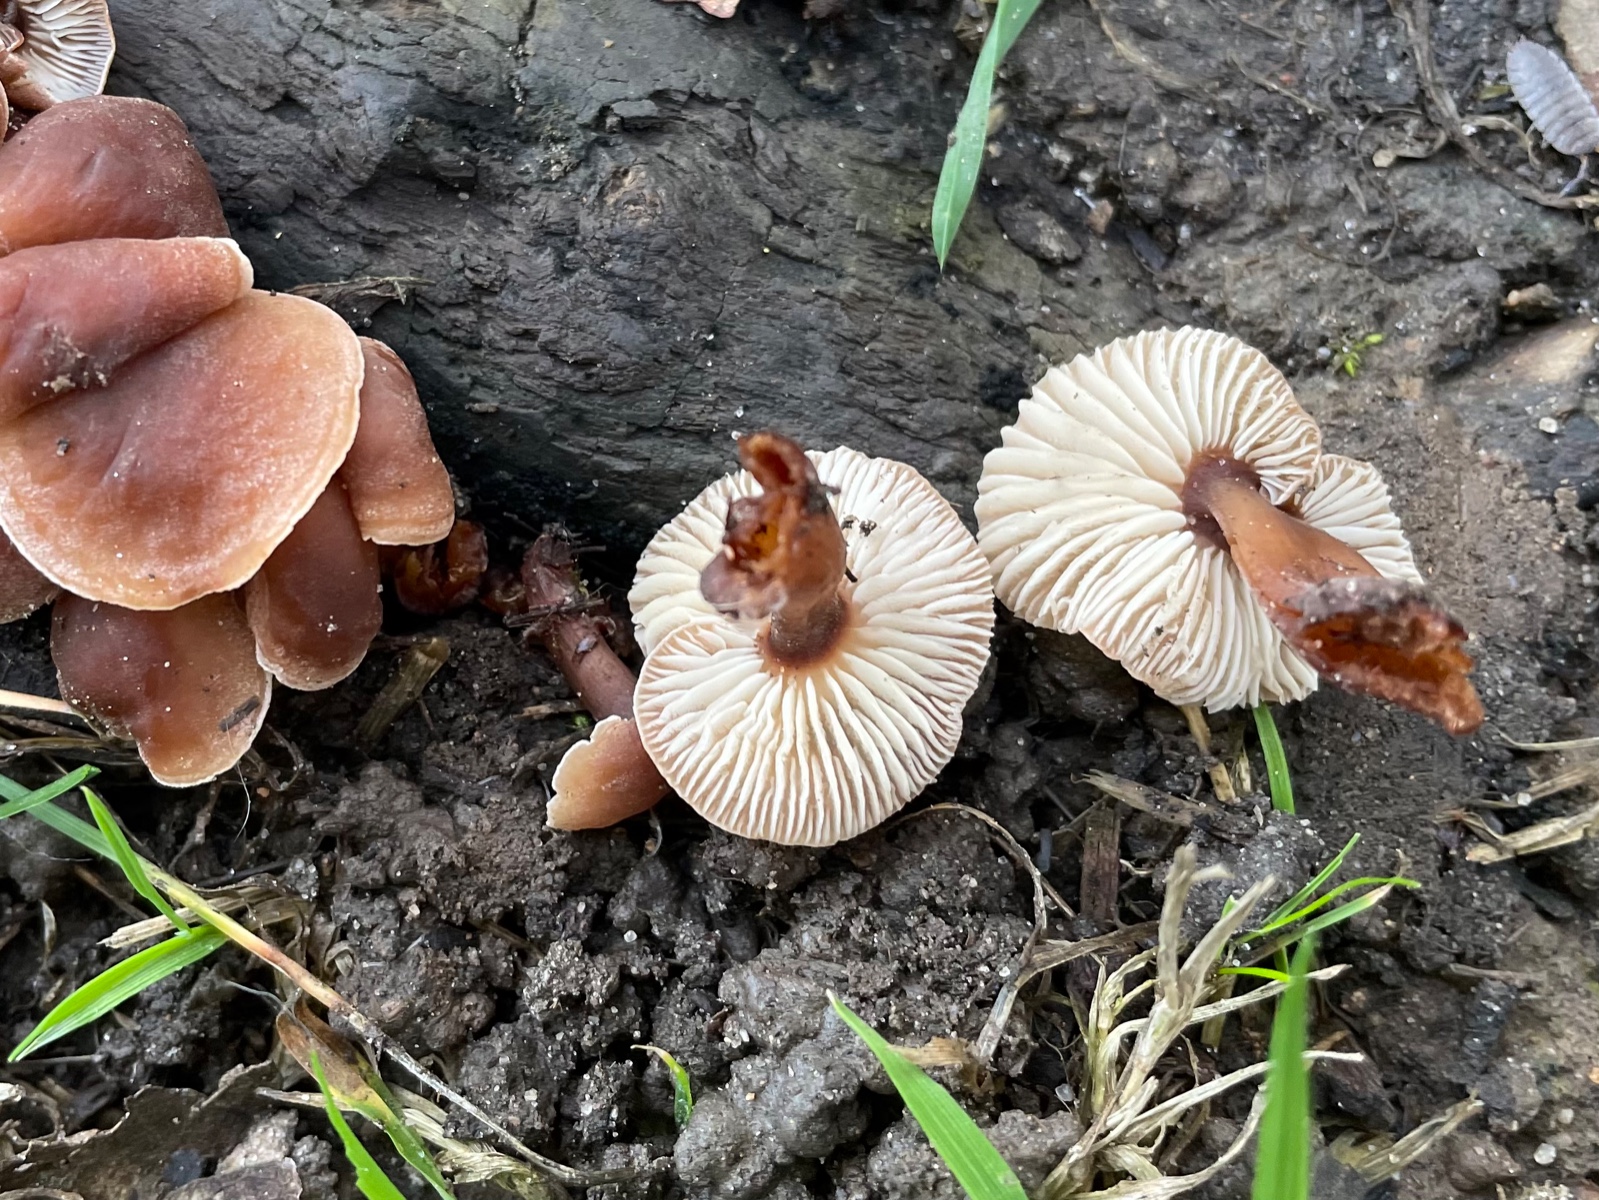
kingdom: Fungi
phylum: Basidiomycota
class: Agaricomycetes
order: Agaricales
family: Omphalotaceae
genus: Gymnopus
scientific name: Gymnopus erythropus
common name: rødstokket fladhat
